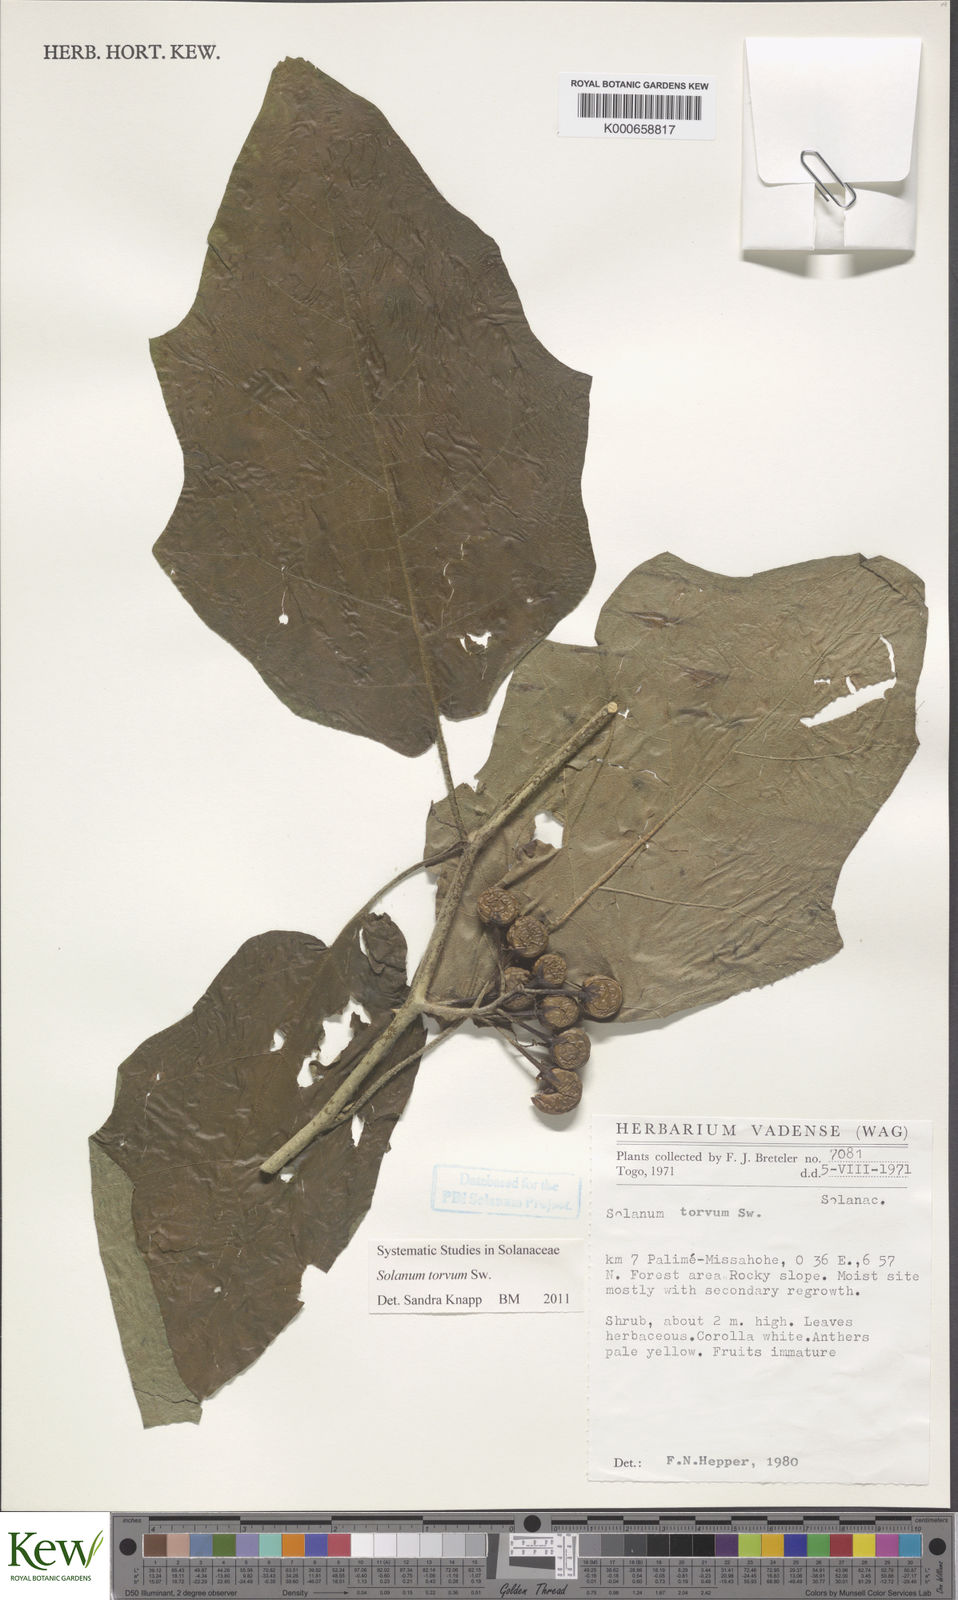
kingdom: Plantae
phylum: Tracheophyta
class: Magnoliopsida
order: Solanales
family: Solanaceae
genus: Solanum
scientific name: Solanum torvum
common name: Turkey berry
